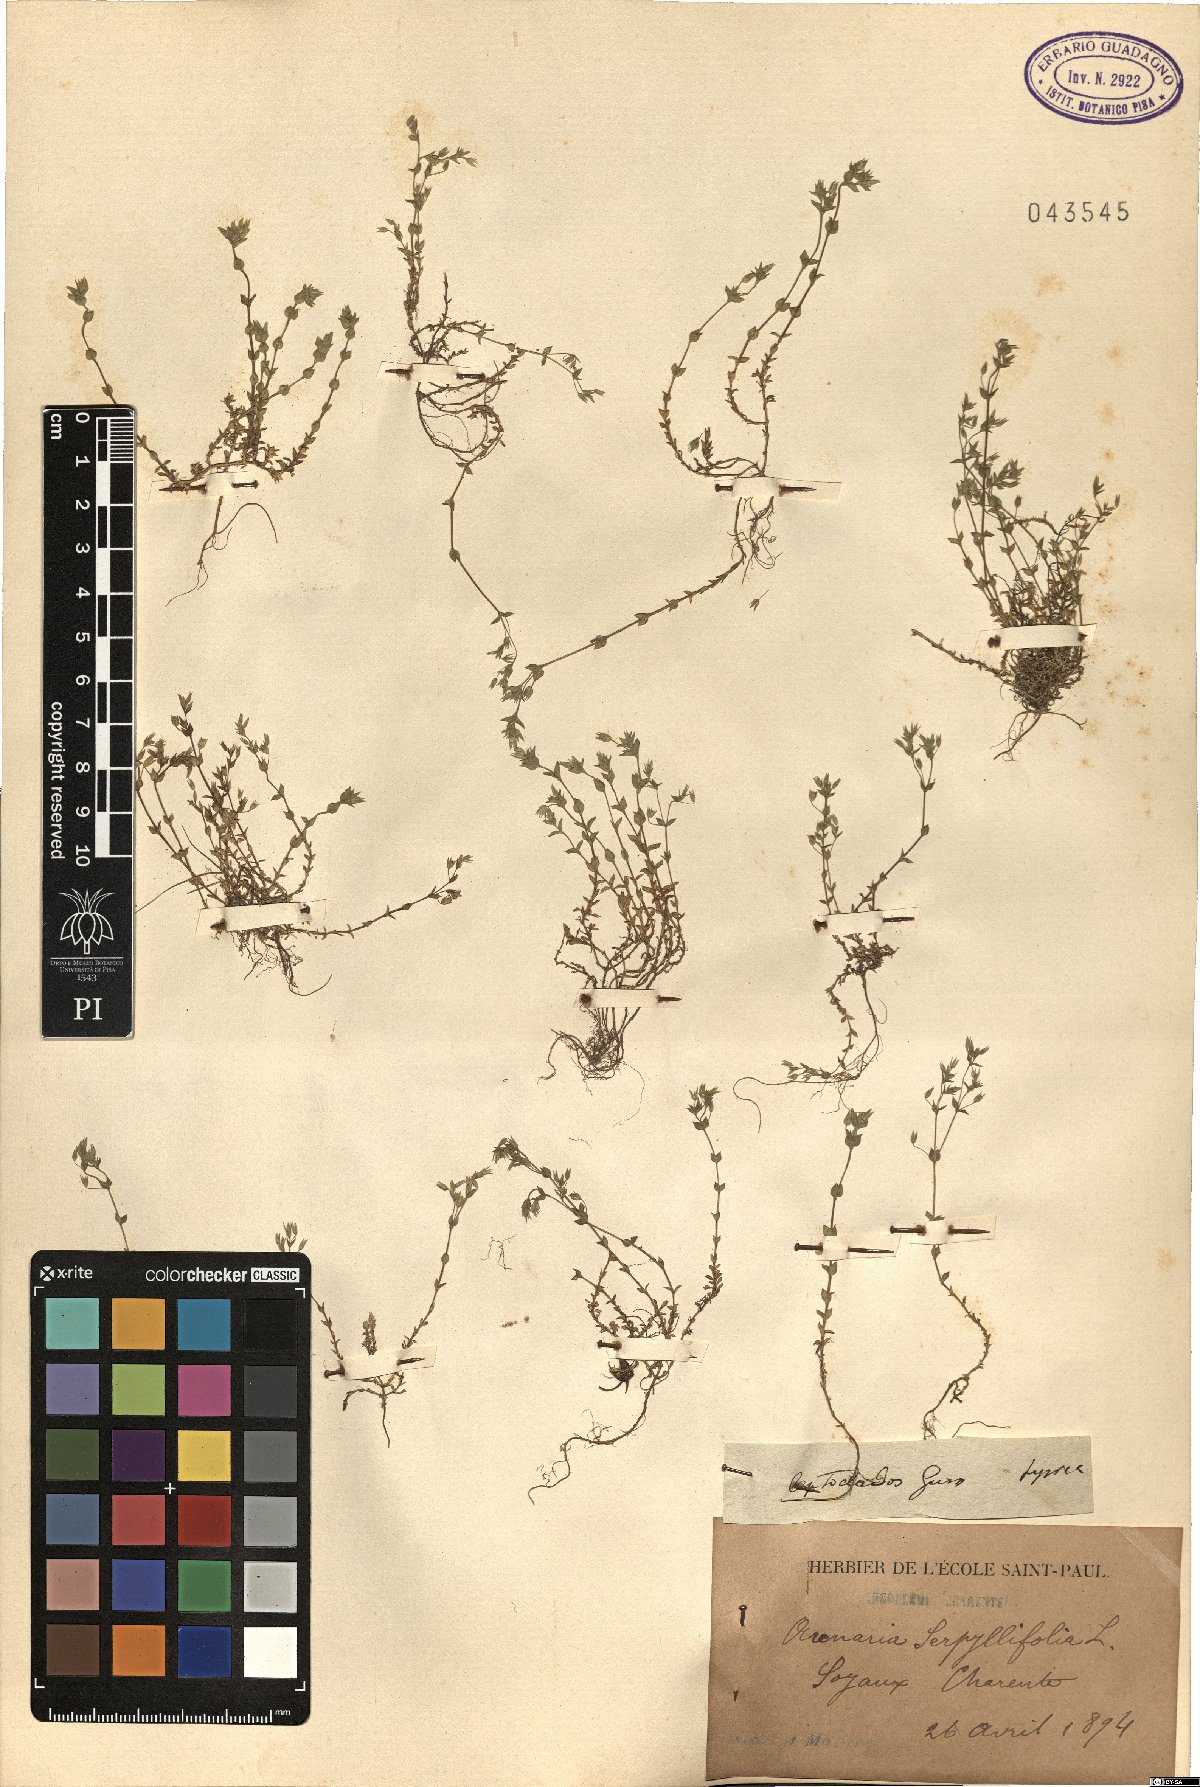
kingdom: Plantae
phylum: Tracheophyta
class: Magnoliopsida
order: Caryophyllales
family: Caryophyllaceae
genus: Arenaria
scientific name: Arenaria leptoclados
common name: Thyme-leaved sandwort
